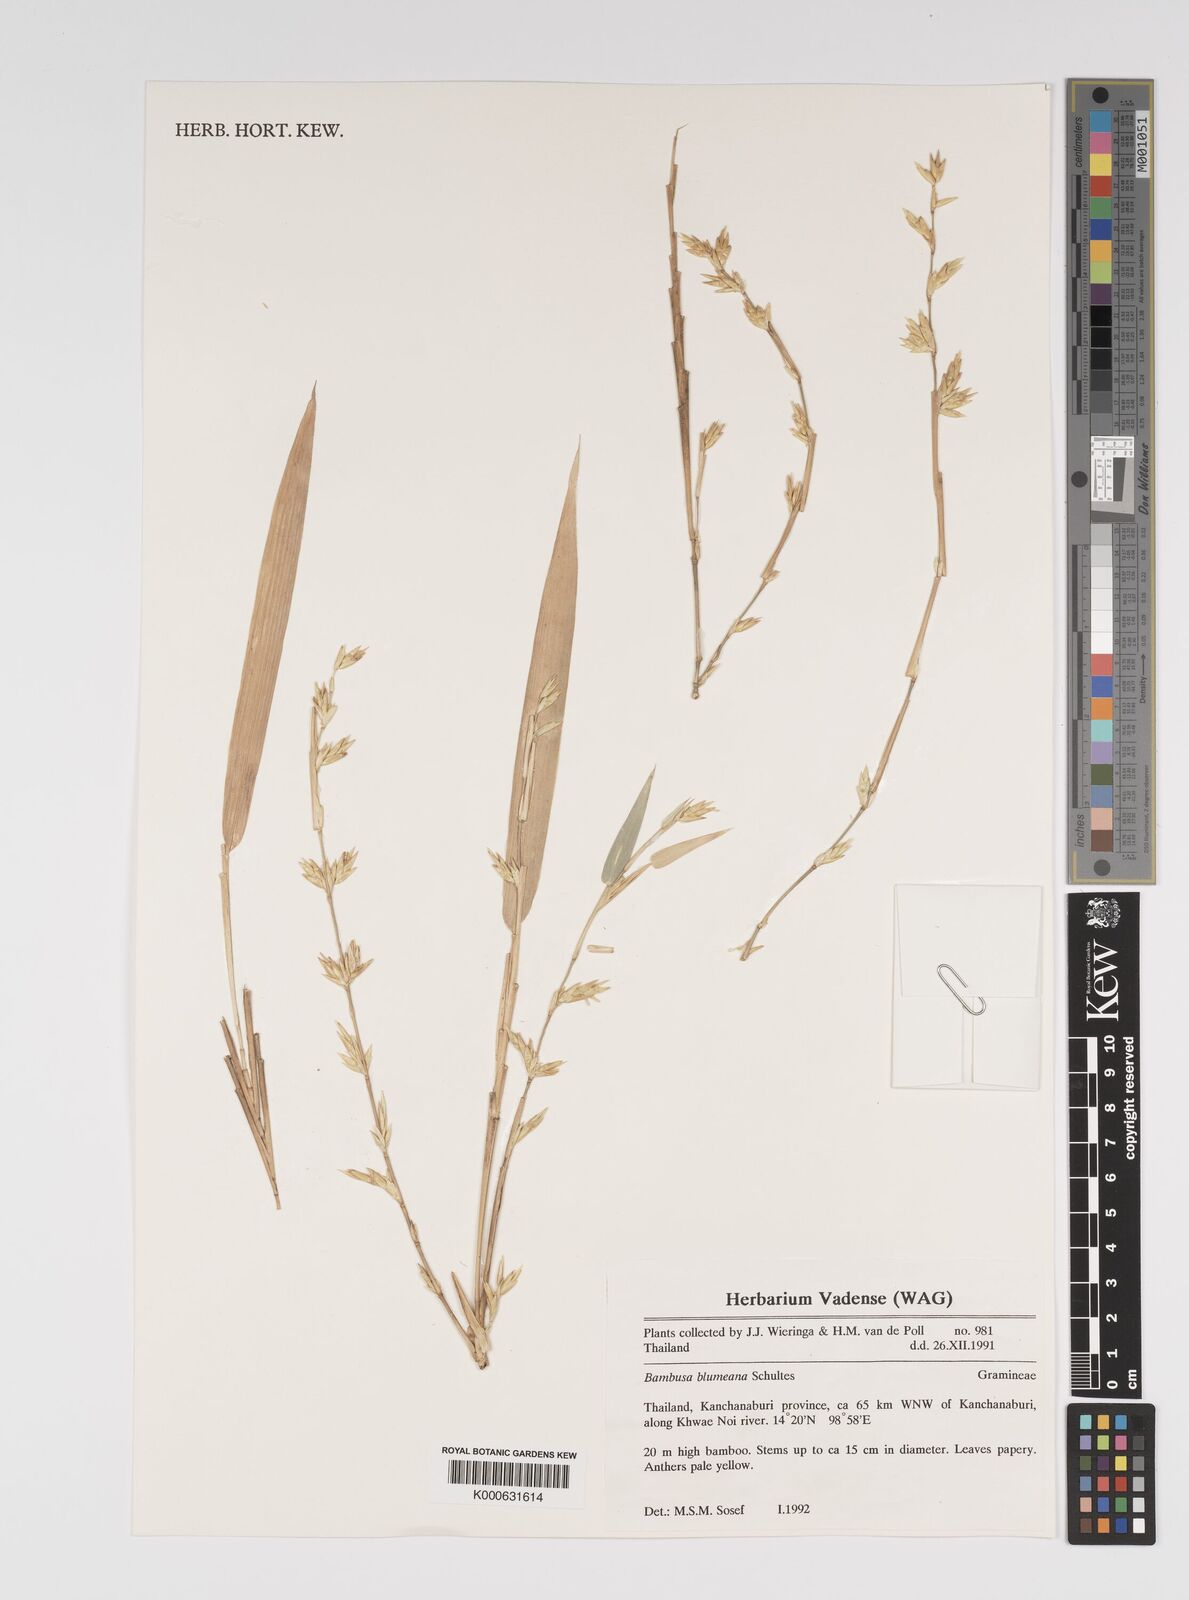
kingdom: Plantae
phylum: Tracheophyta
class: Liliopsida
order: Poales
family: Poaceae
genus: Bambusa
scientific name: Bambusa spinosa
